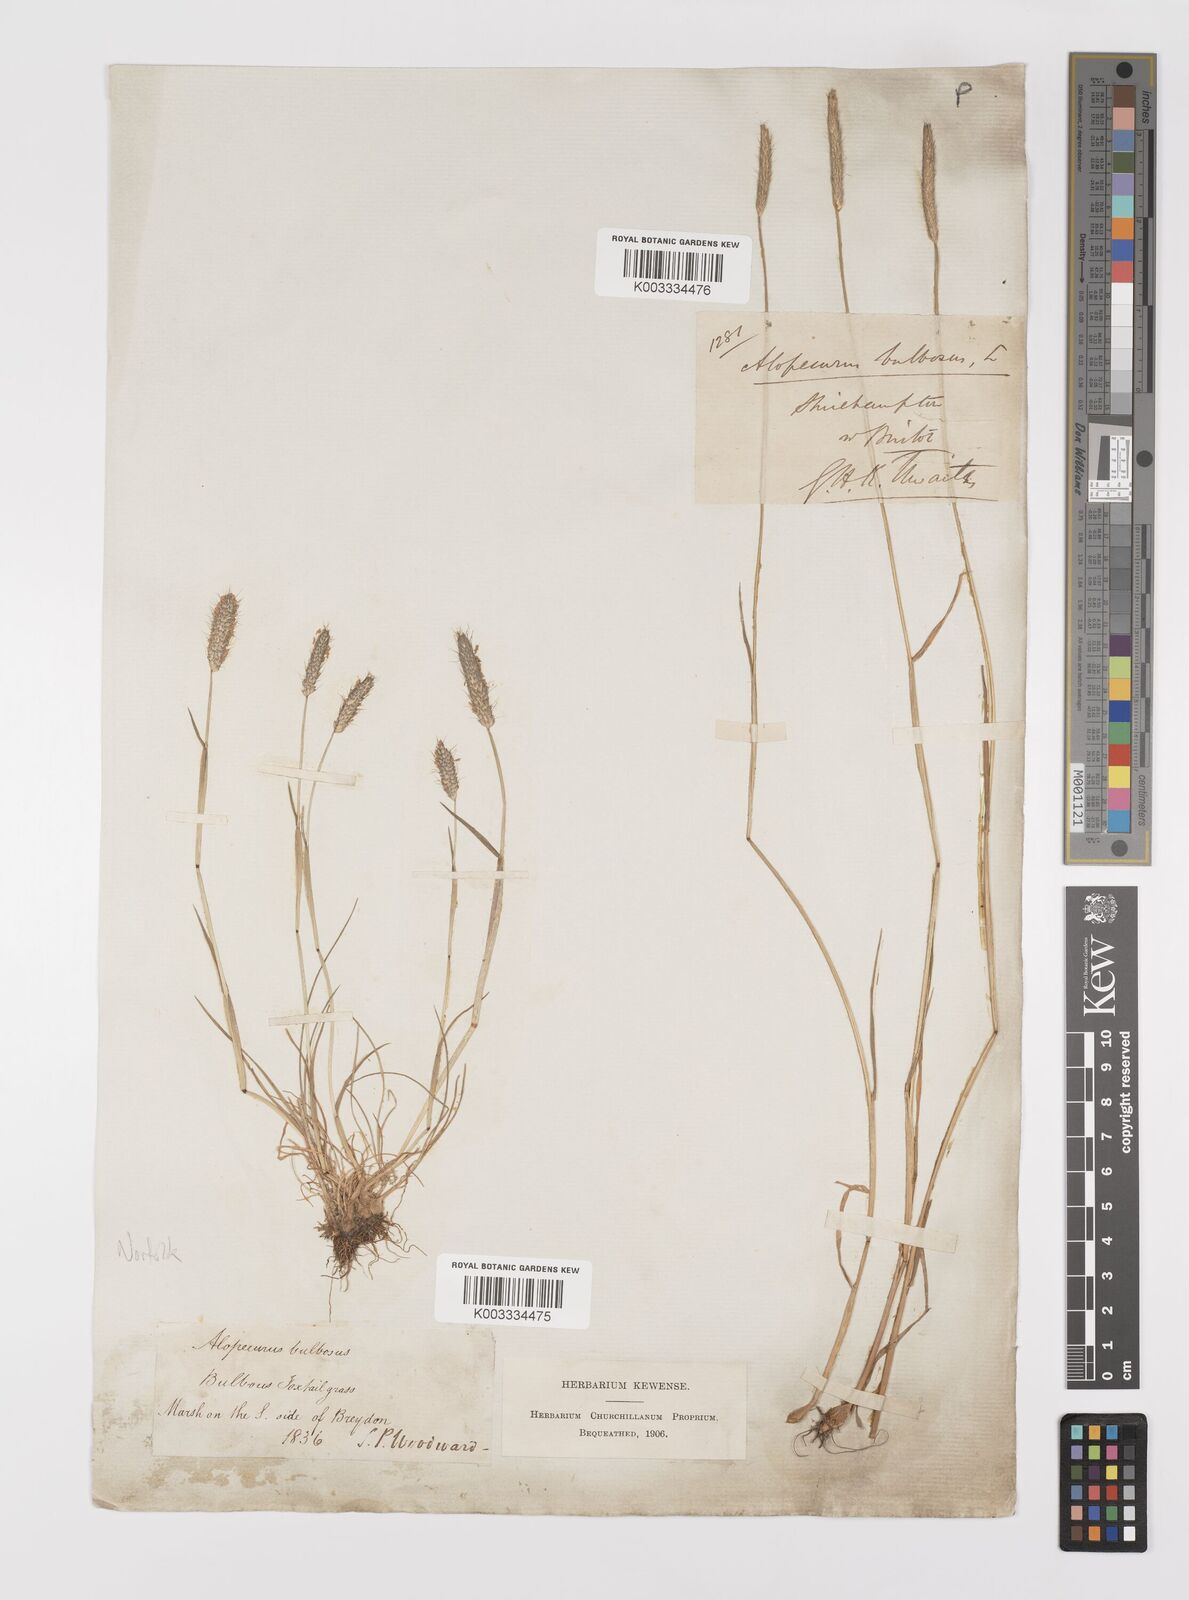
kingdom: Plantae
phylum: Tracheophyta
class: Liliopsida
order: Poales
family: Poaceae
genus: Alopecurus
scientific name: Alopecurus bulbosus
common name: Bulbous foxtail
